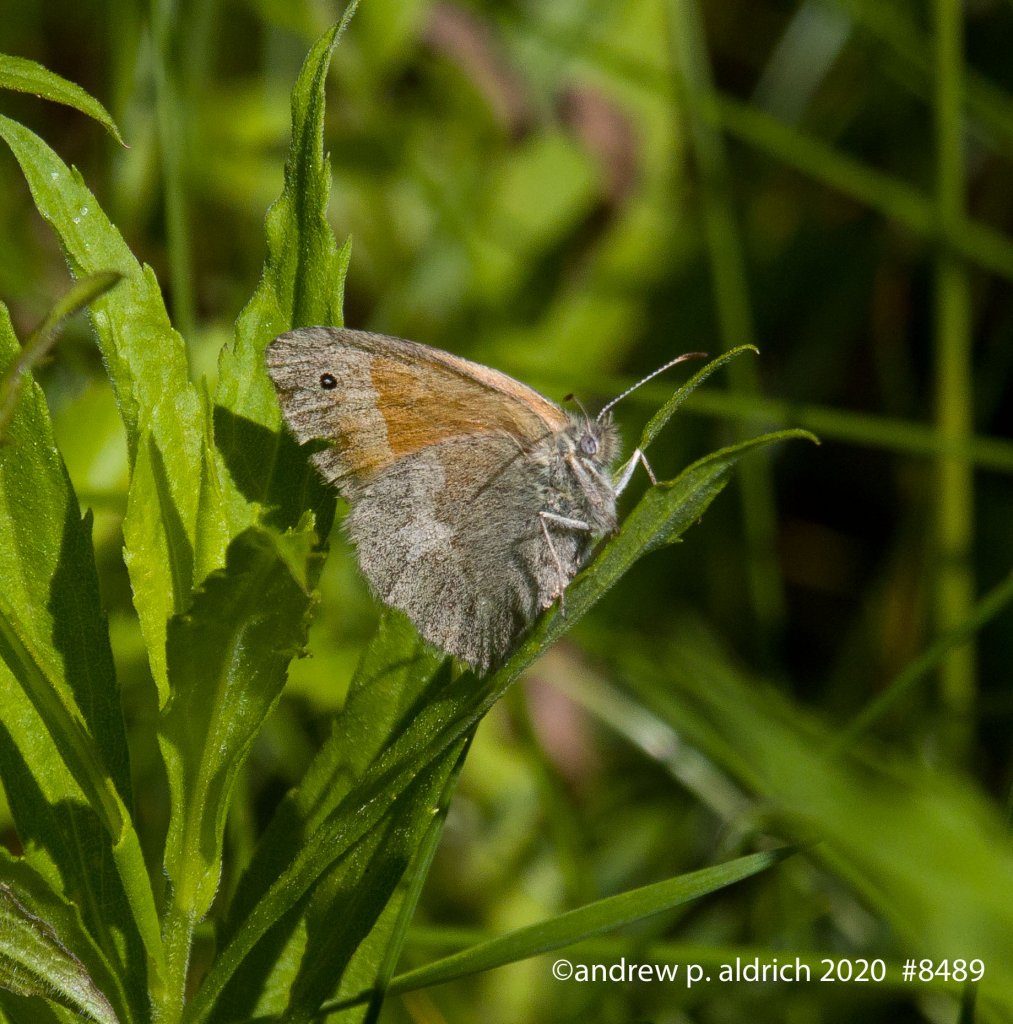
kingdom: Animalia
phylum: Arthropoda
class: Insecta
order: Lepidoptera
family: Nymphalidae
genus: Coenonympha
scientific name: Coenonympha tullia
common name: Large Heath
